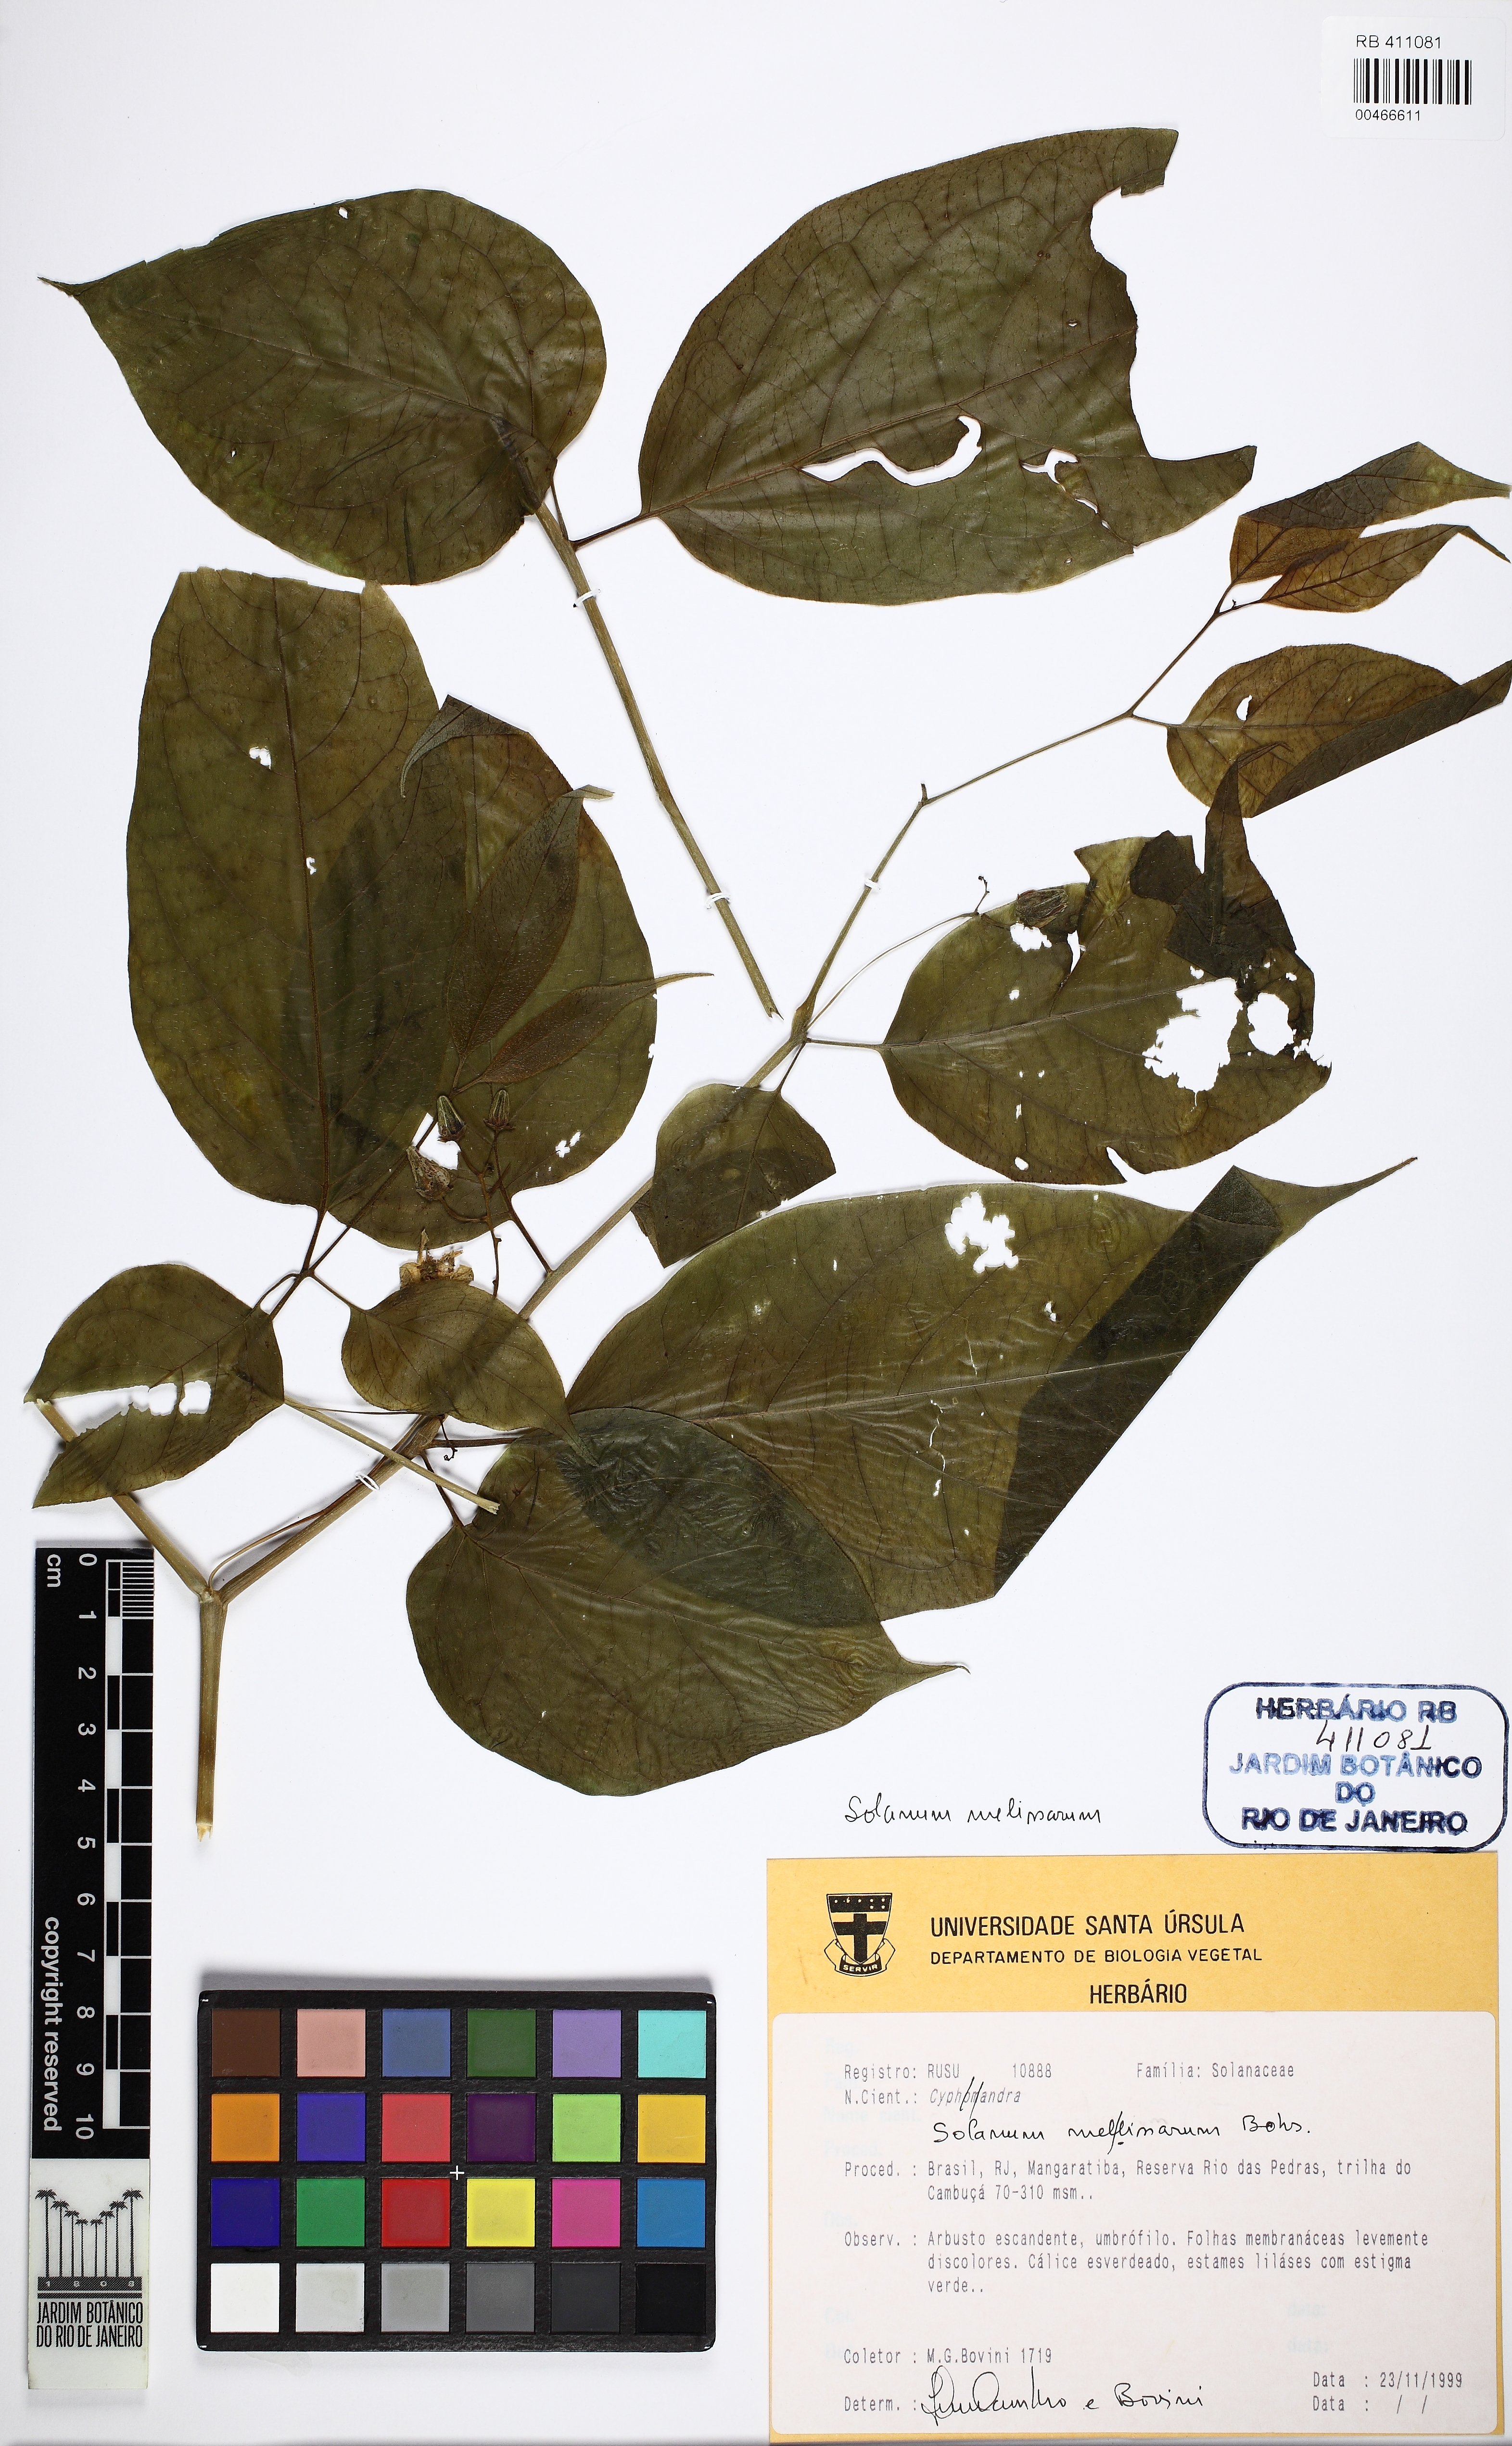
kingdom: Plantae
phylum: Tracheophyta
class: Magnoliopsida
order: Solanales
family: Solanaceae
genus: Solanum
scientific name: Solanum melissarum
